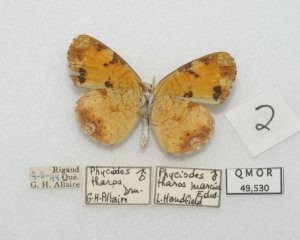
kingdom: Animalia
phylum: Arthropoda
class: Insecta
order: Lepidoptera
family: Nymphalidae
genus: Phyciodes
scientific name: Phyciodes tharos
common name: Northern Crescent
